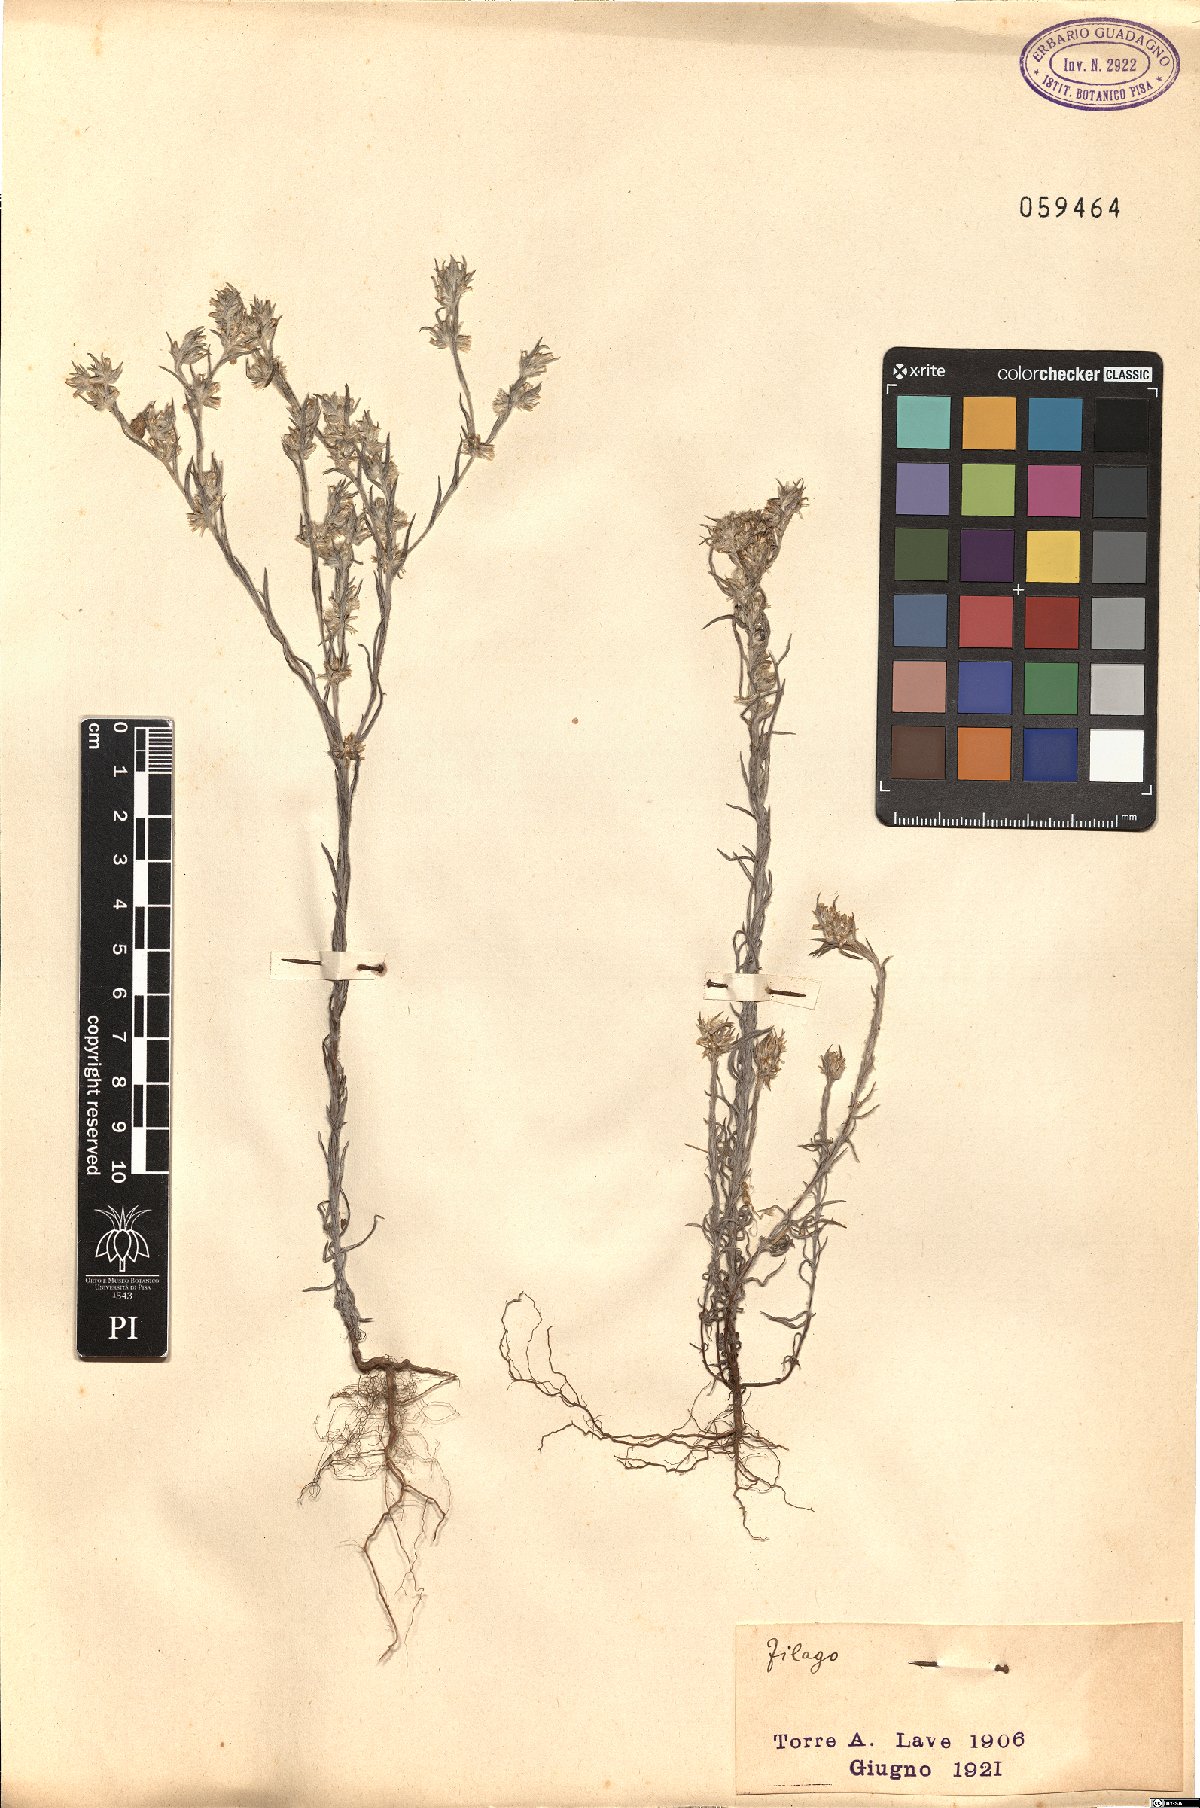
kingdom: Plantae
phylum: Tracheophyta
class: Magnoliopsida
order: Asterales
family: Asteraceae
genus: Filago
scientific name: Filago
